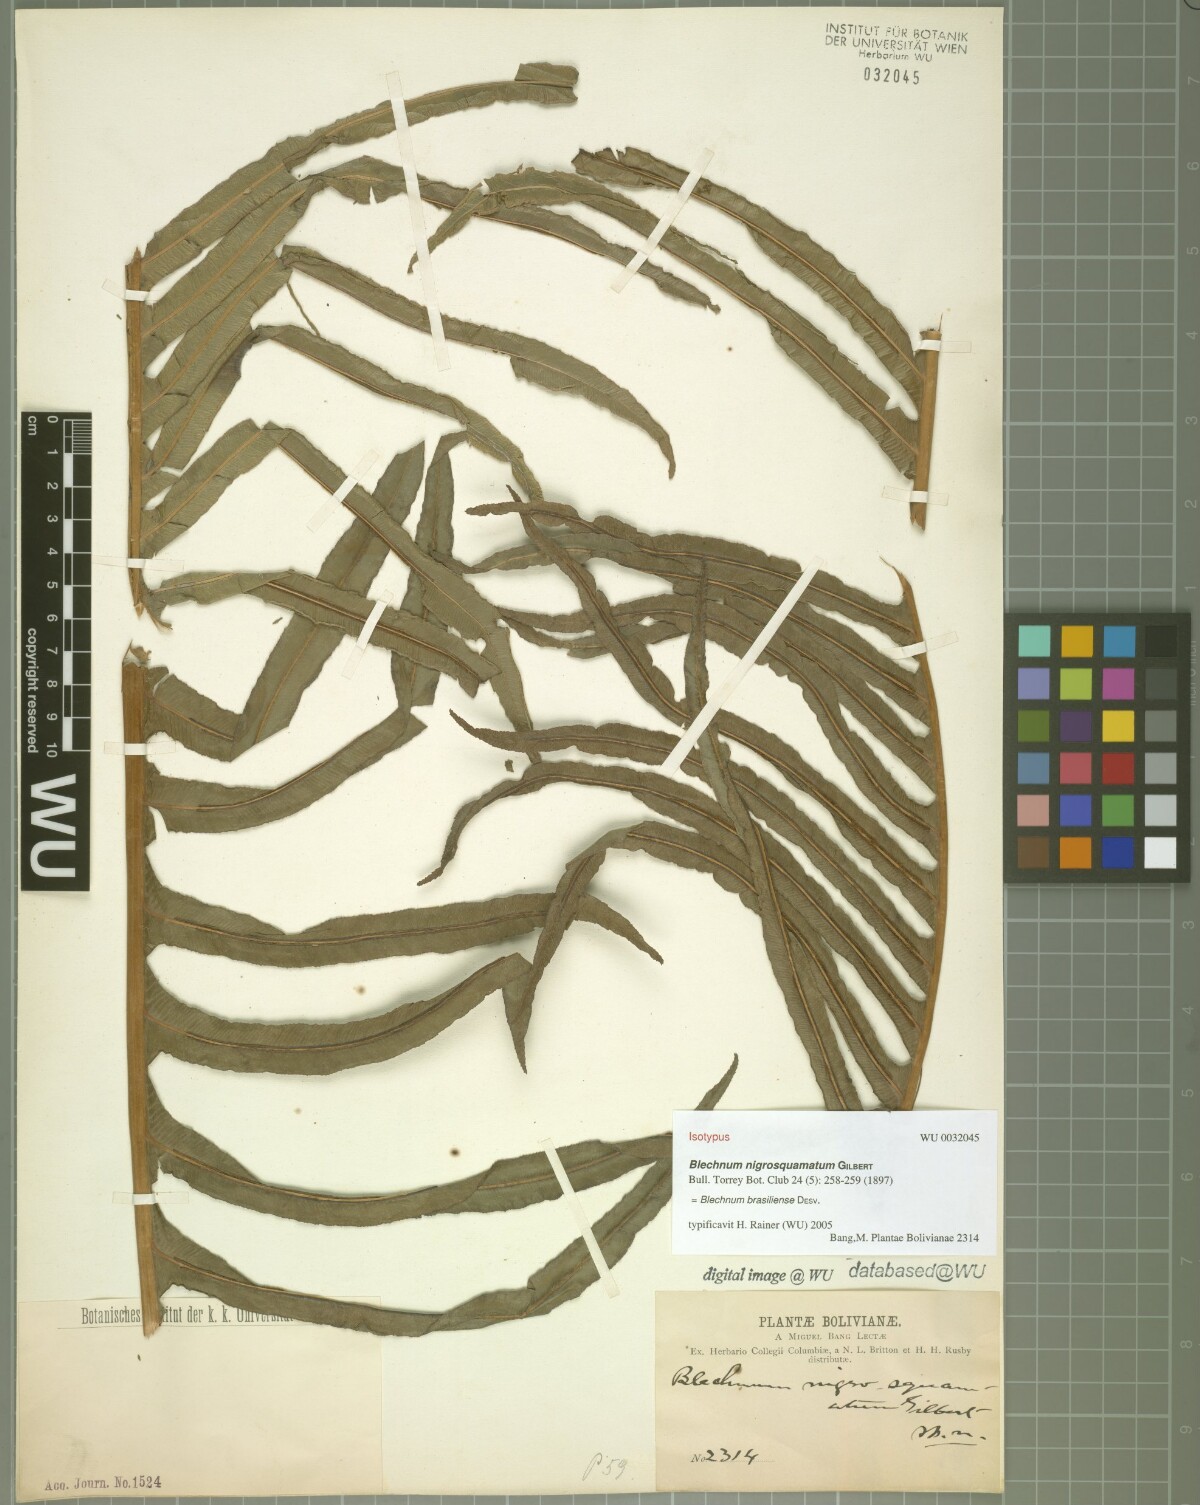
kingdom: Plantae
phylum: Tracheophyta
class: Polypodiopsida
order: Polypodiales
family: Blechnaceae
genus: Neoblechnum
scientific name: Neoblechnum brasiliense
